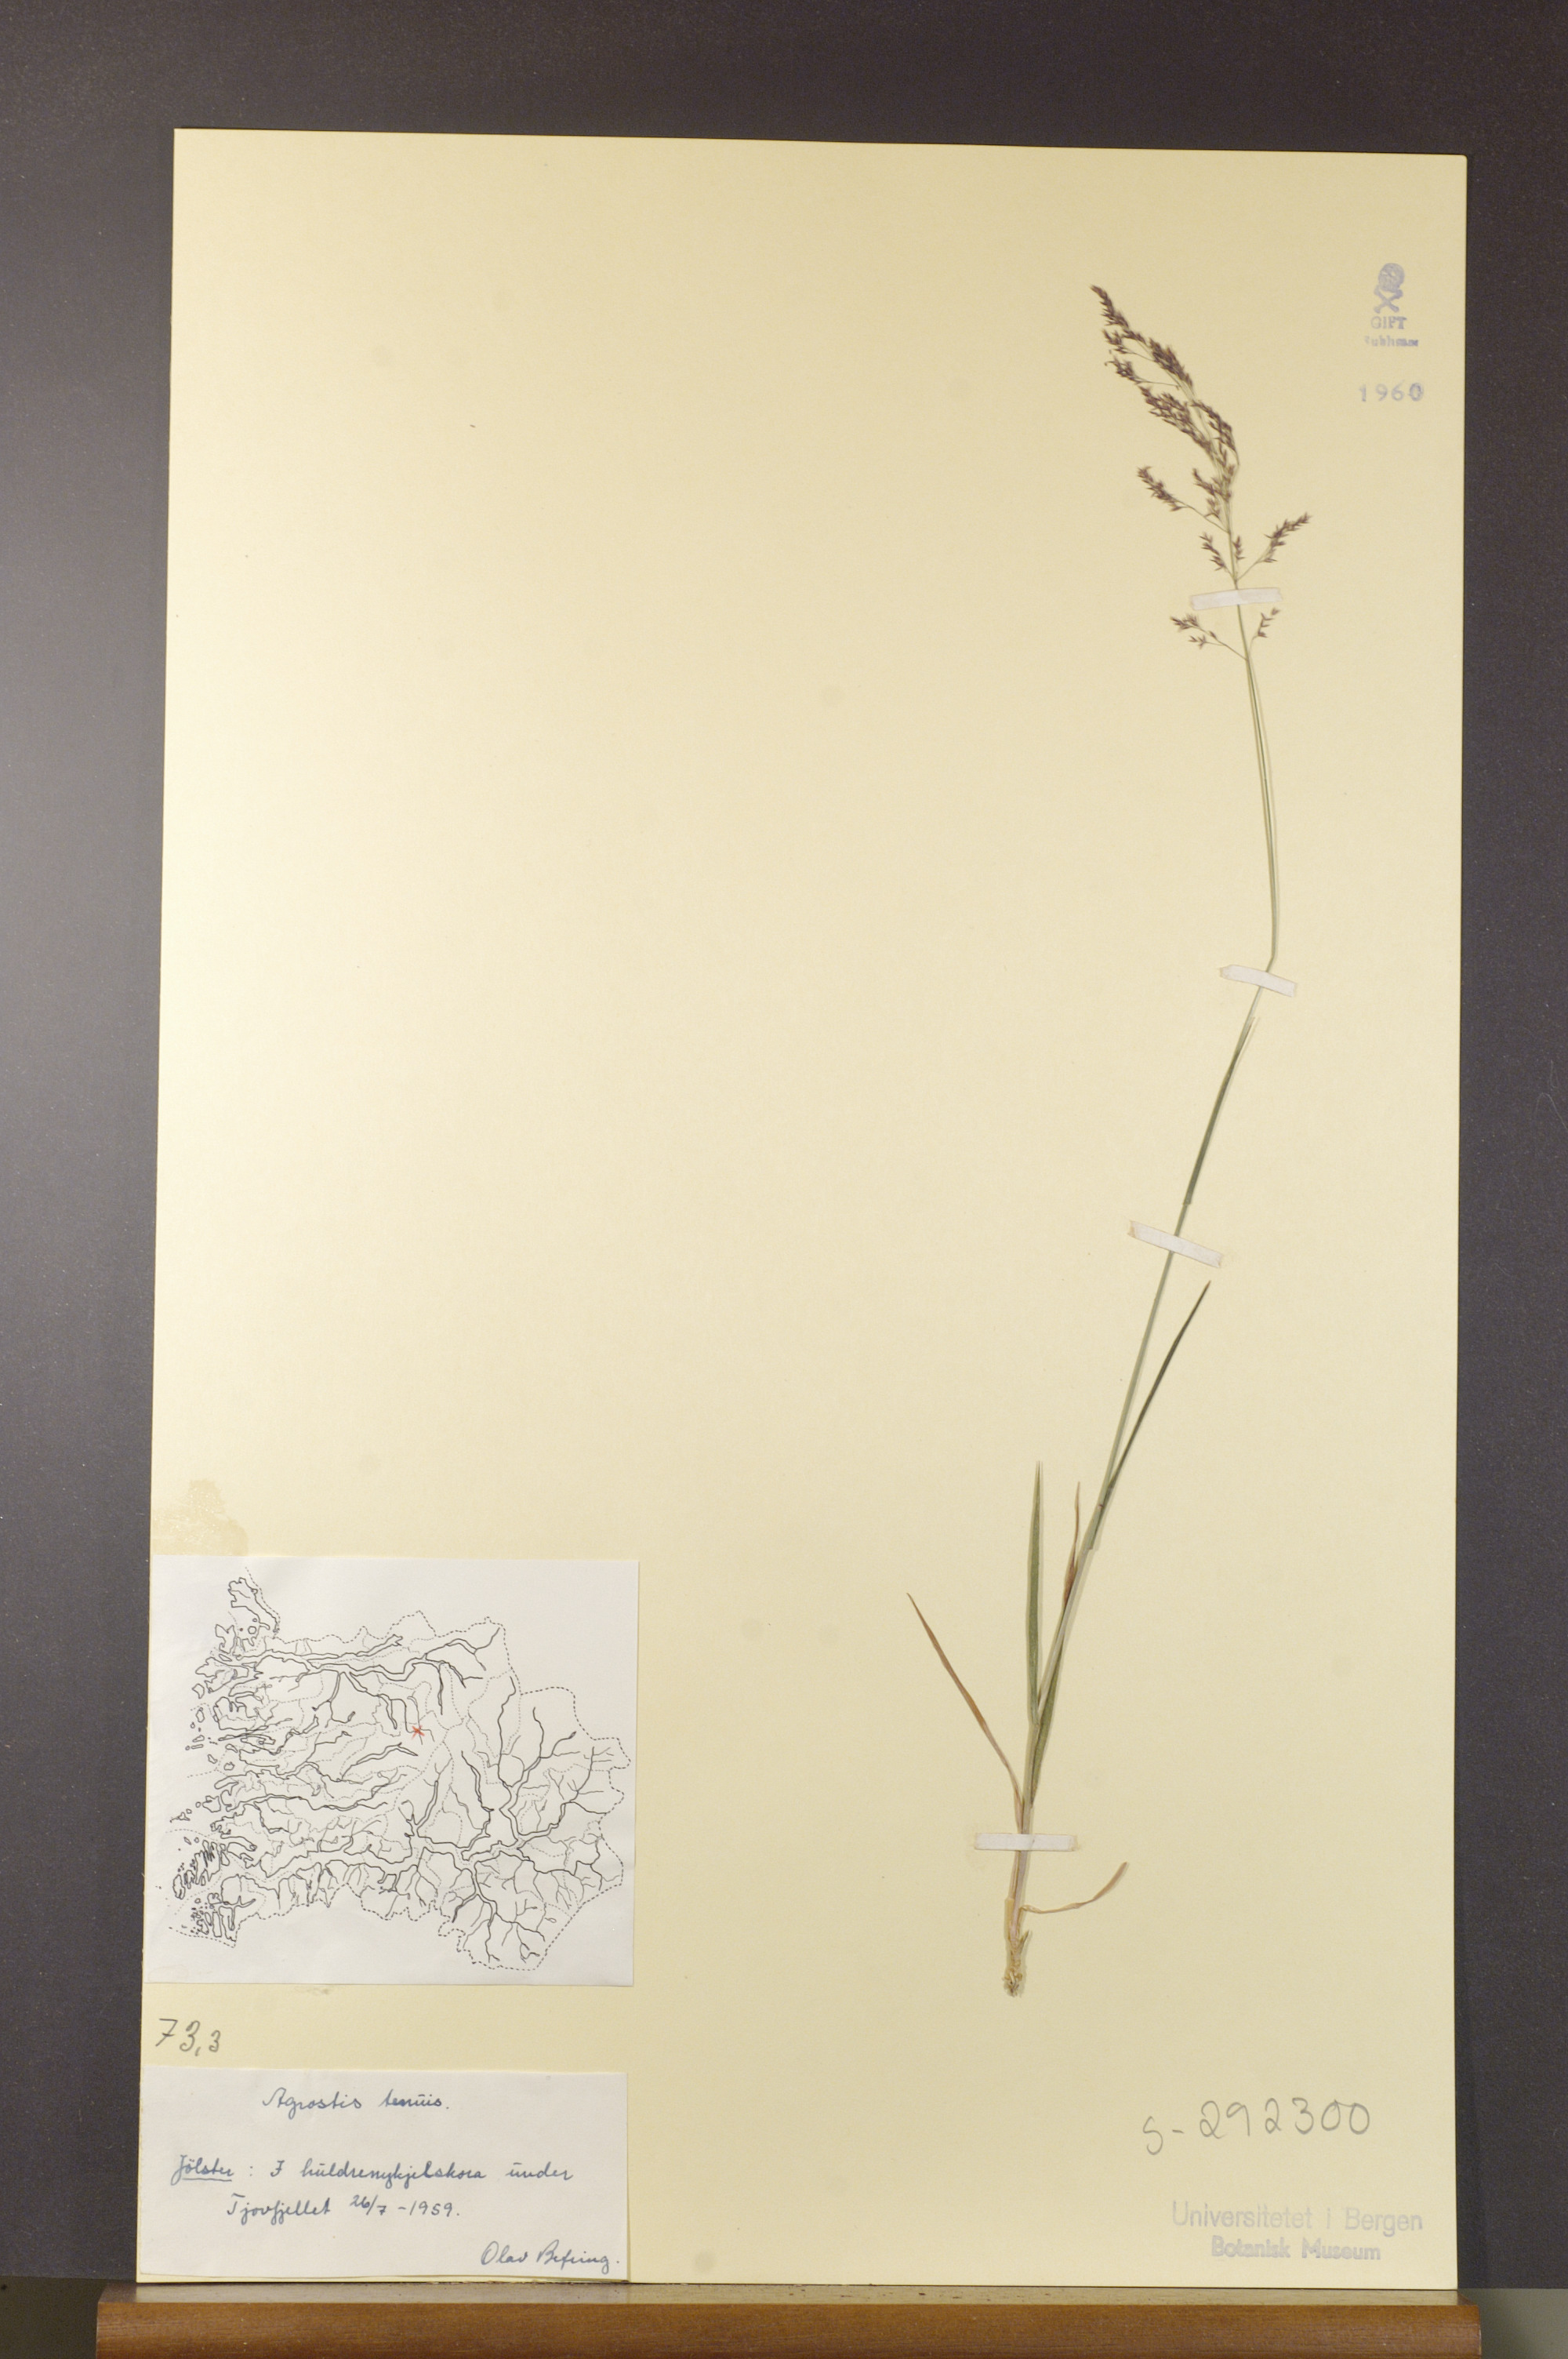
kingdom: Plantae
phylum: Tracheophyta
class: Liliopsida
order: Poales
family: Poaceae
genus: Agrostis
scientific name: Agrostis capillaris
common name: Colonial bentgrass
